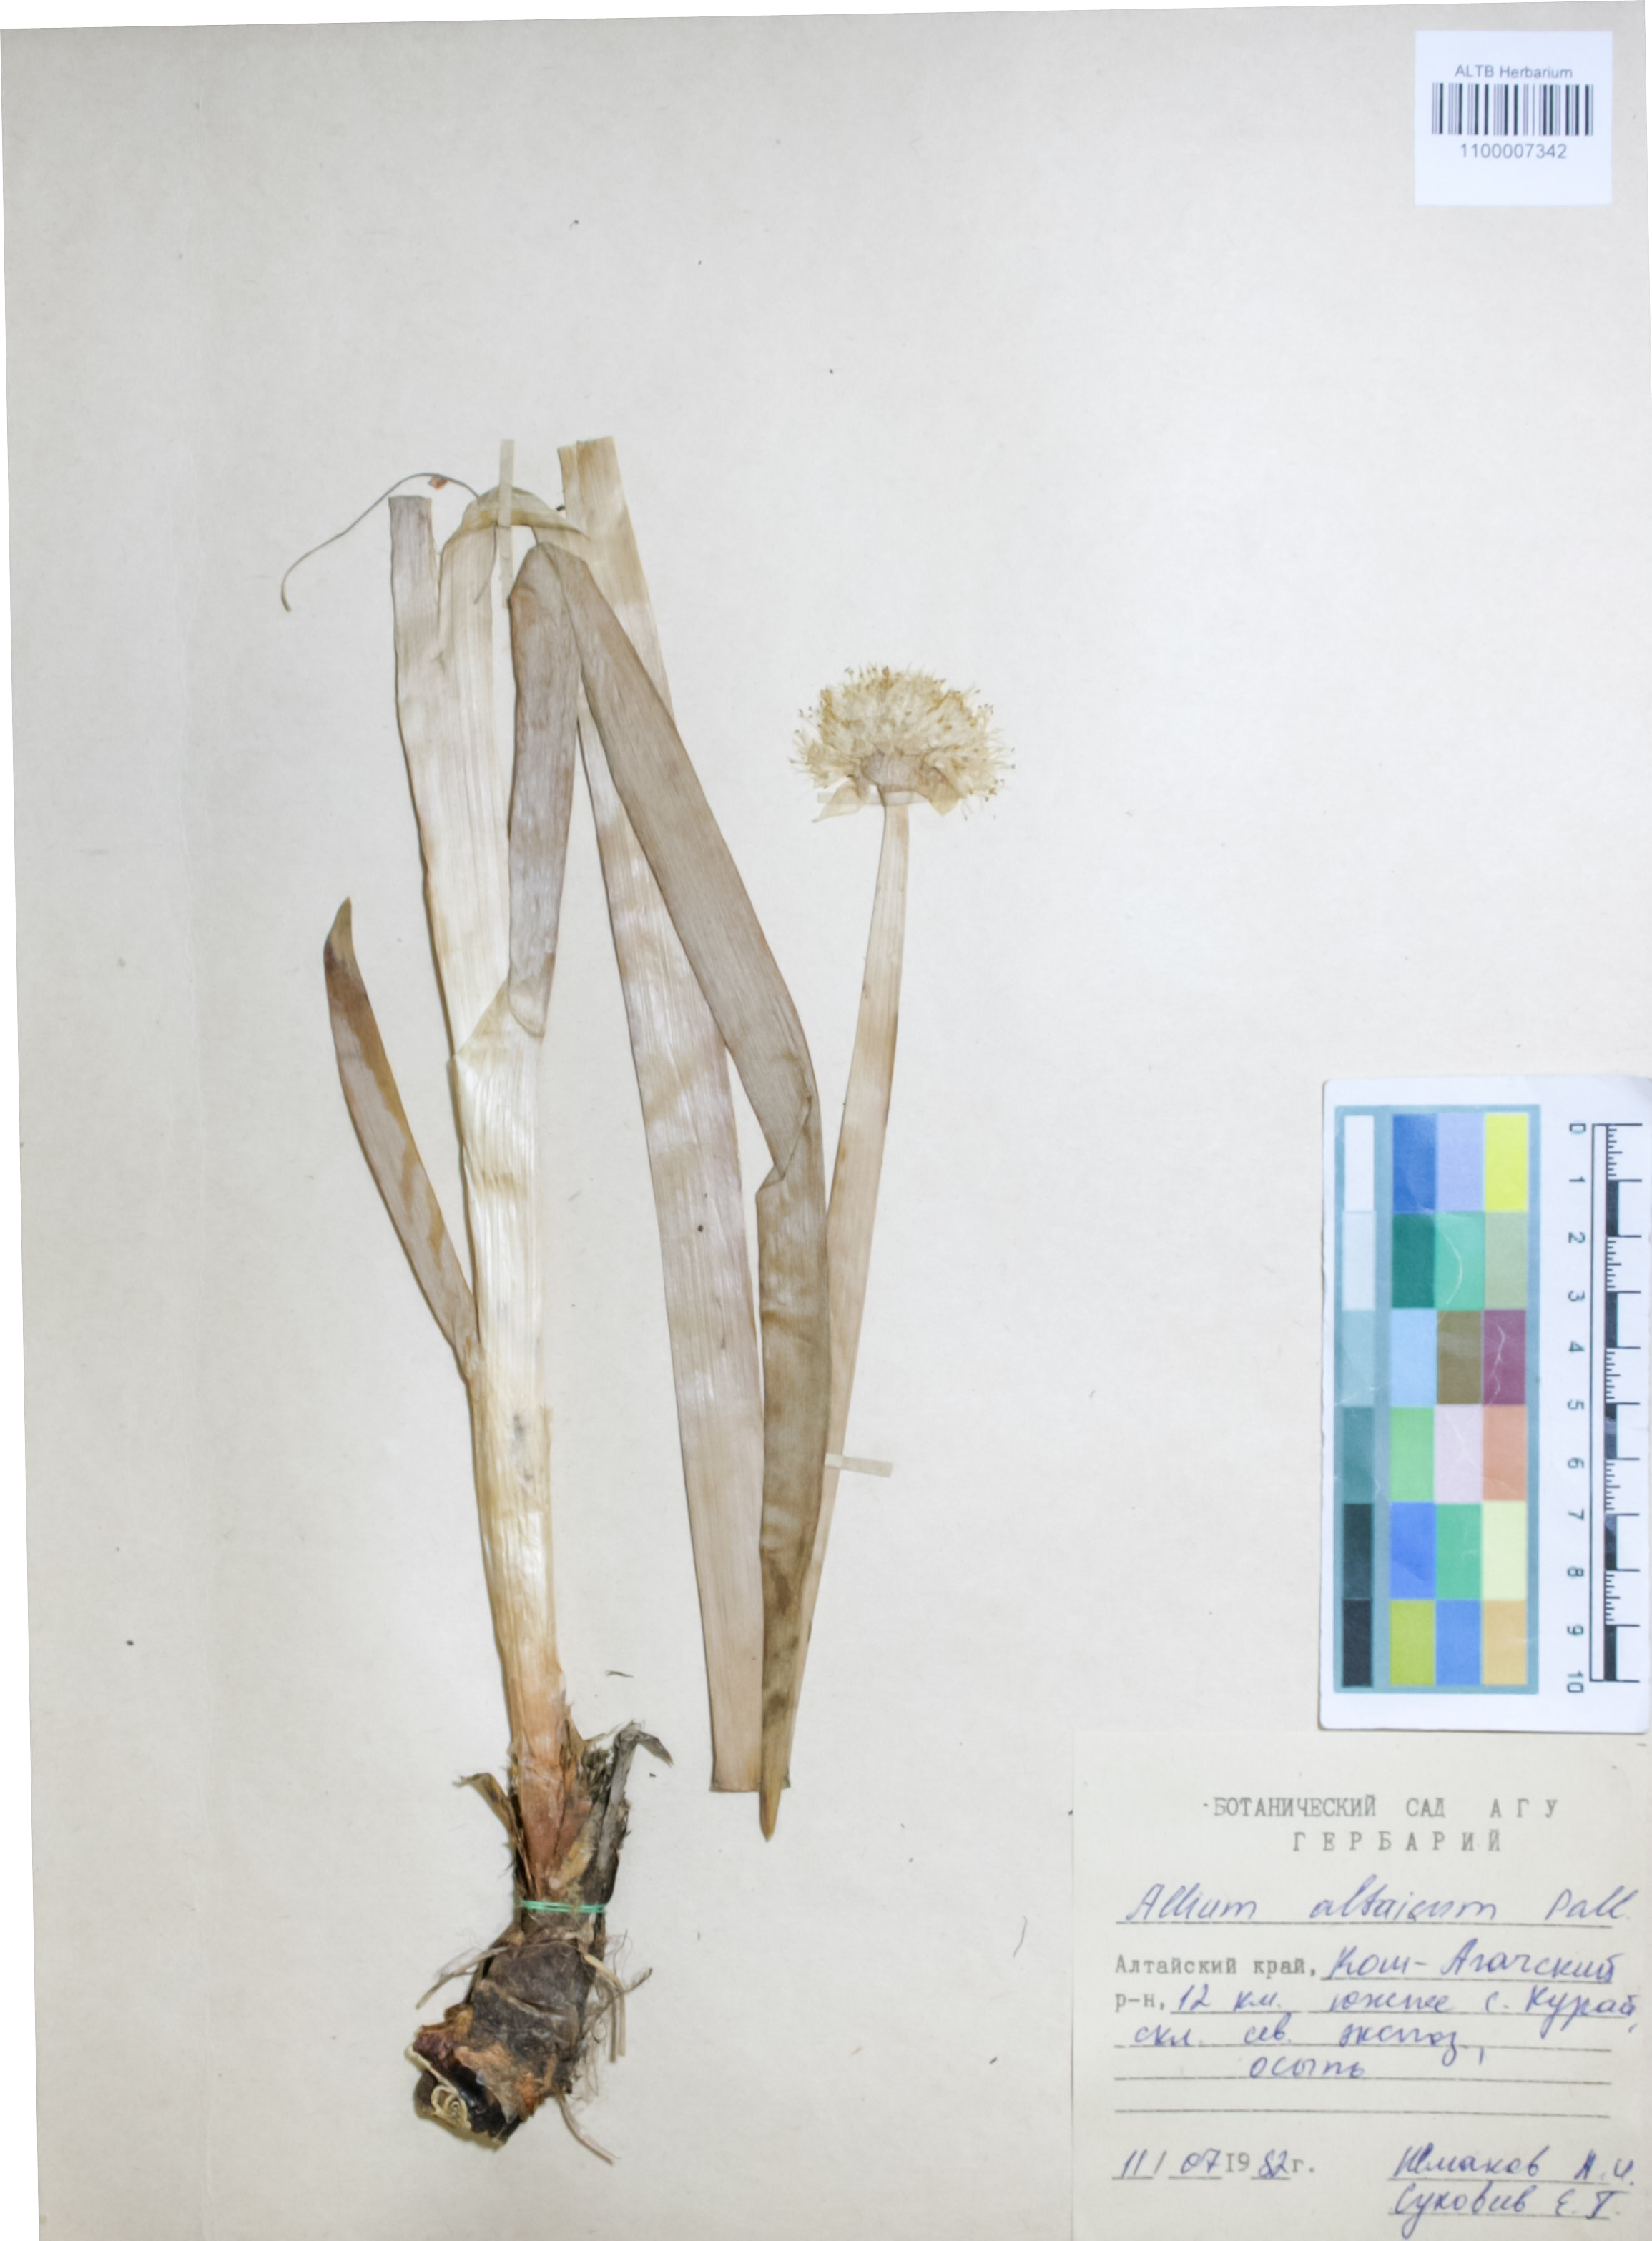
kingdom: Plantae
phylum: Tracheophyta
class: Liliopsida
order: Asparagales
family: Amaryllidaceae
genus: Allium
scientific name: Allium altaicum
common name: Altai onion
